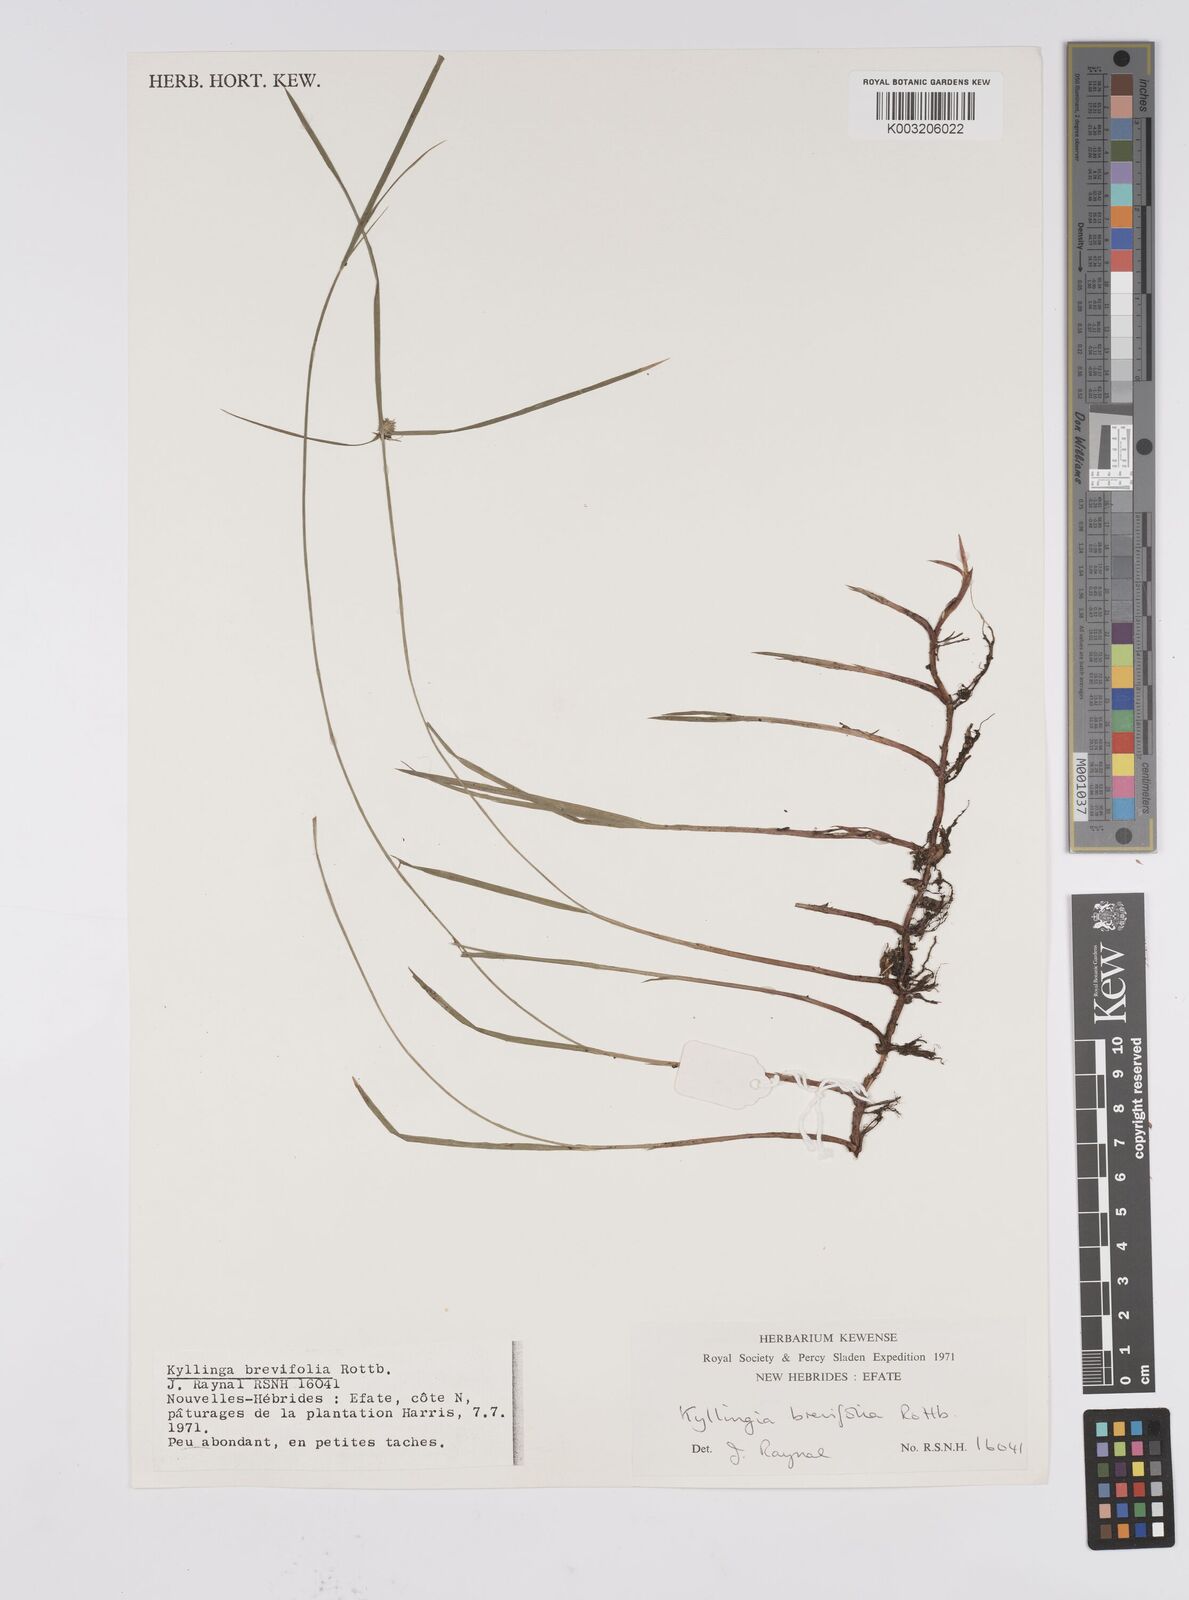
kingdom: Plantae
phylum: Tracheophyta
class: Liliopsida
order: Poales
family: Cyperaceae
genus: Cyperus
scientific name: Cyperus brevifolius
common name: Globe kyllinga
